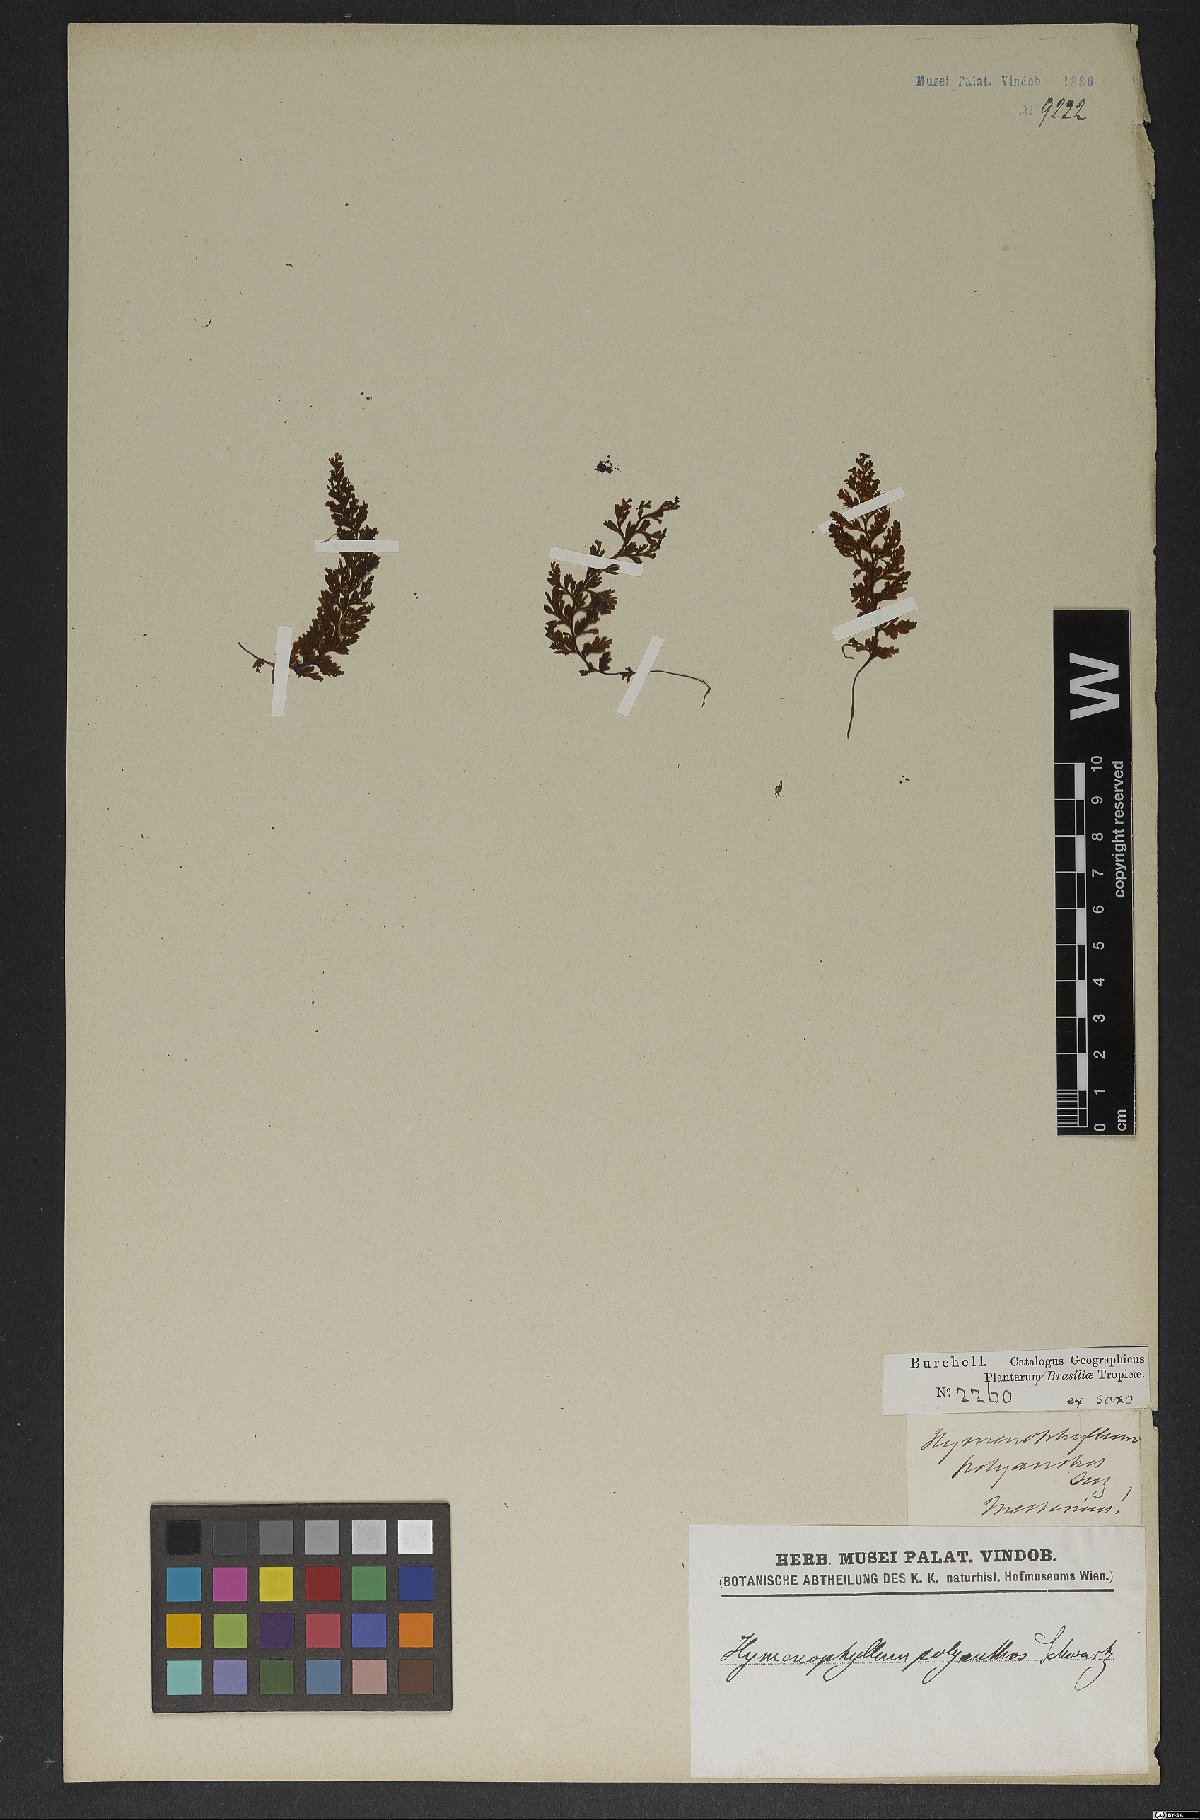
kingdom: Plantae
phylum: Tracheophyta
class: Polypodiopsida
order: Hymenophyllales
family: Hymenophyllaceae
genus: Hymenophyllum
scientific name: Hymenophyllum polyanthos
